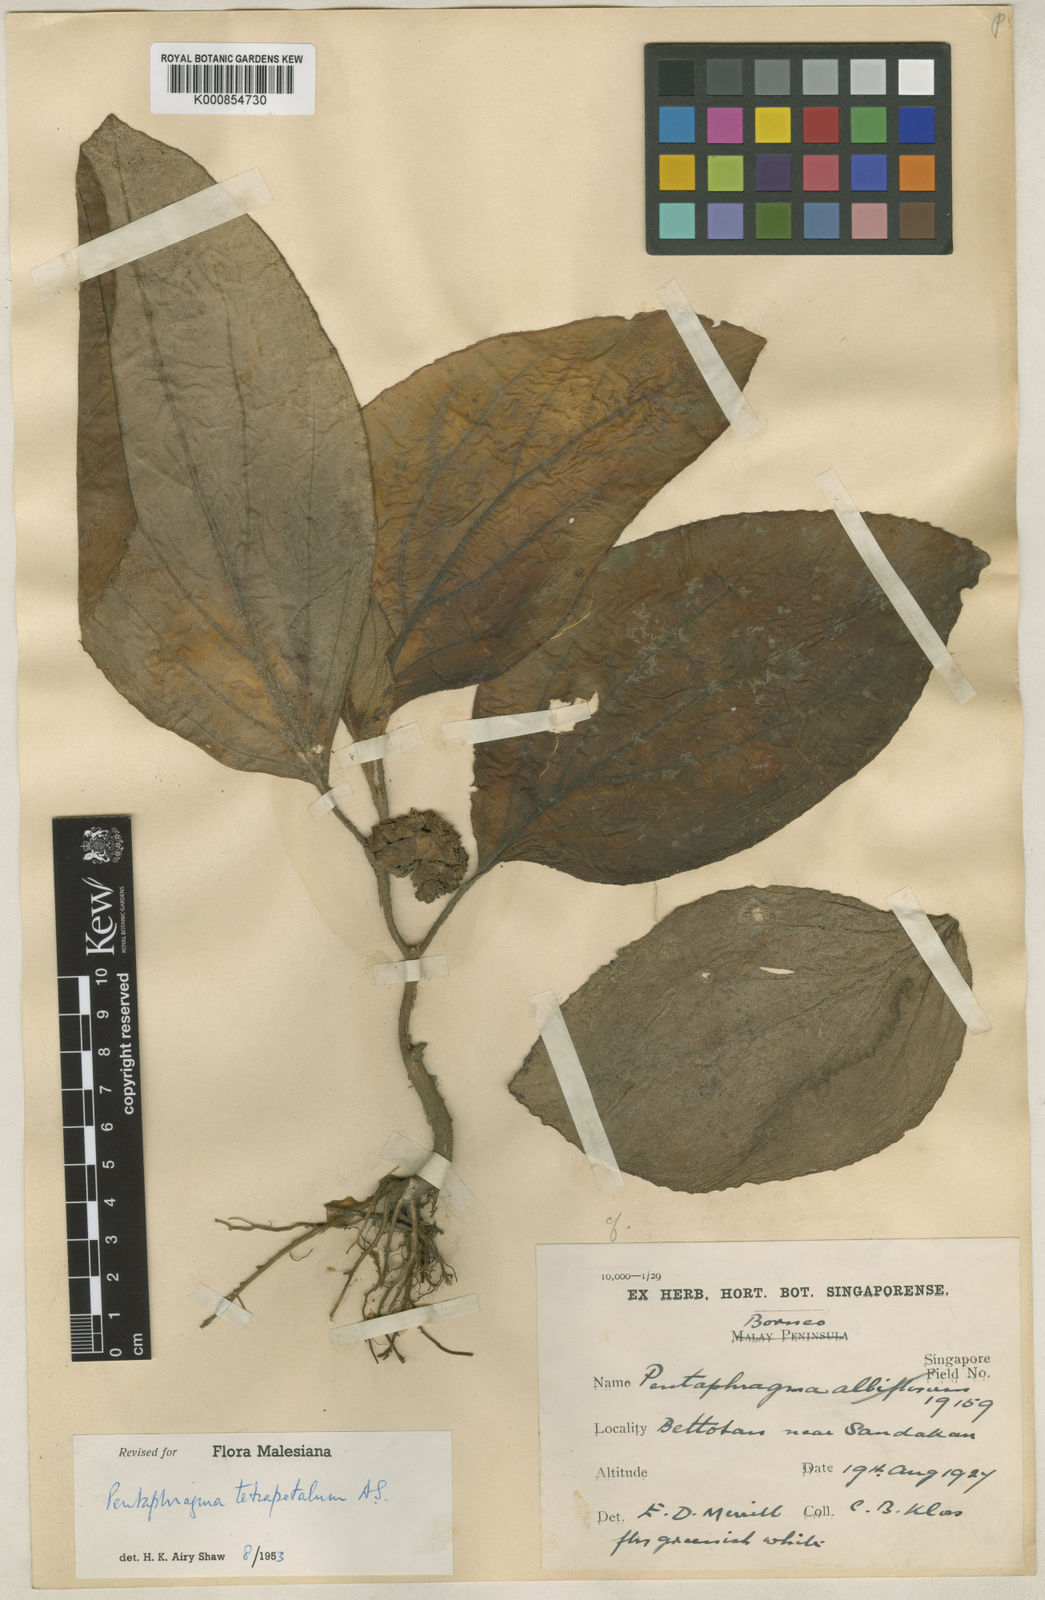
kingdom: Plantae
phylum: Tracheophyta
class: Magnoliopsida
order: Asterales
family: Pentaphragmataceae
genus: Pentaphragma
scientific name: Pentaphragma tetrapetalum
